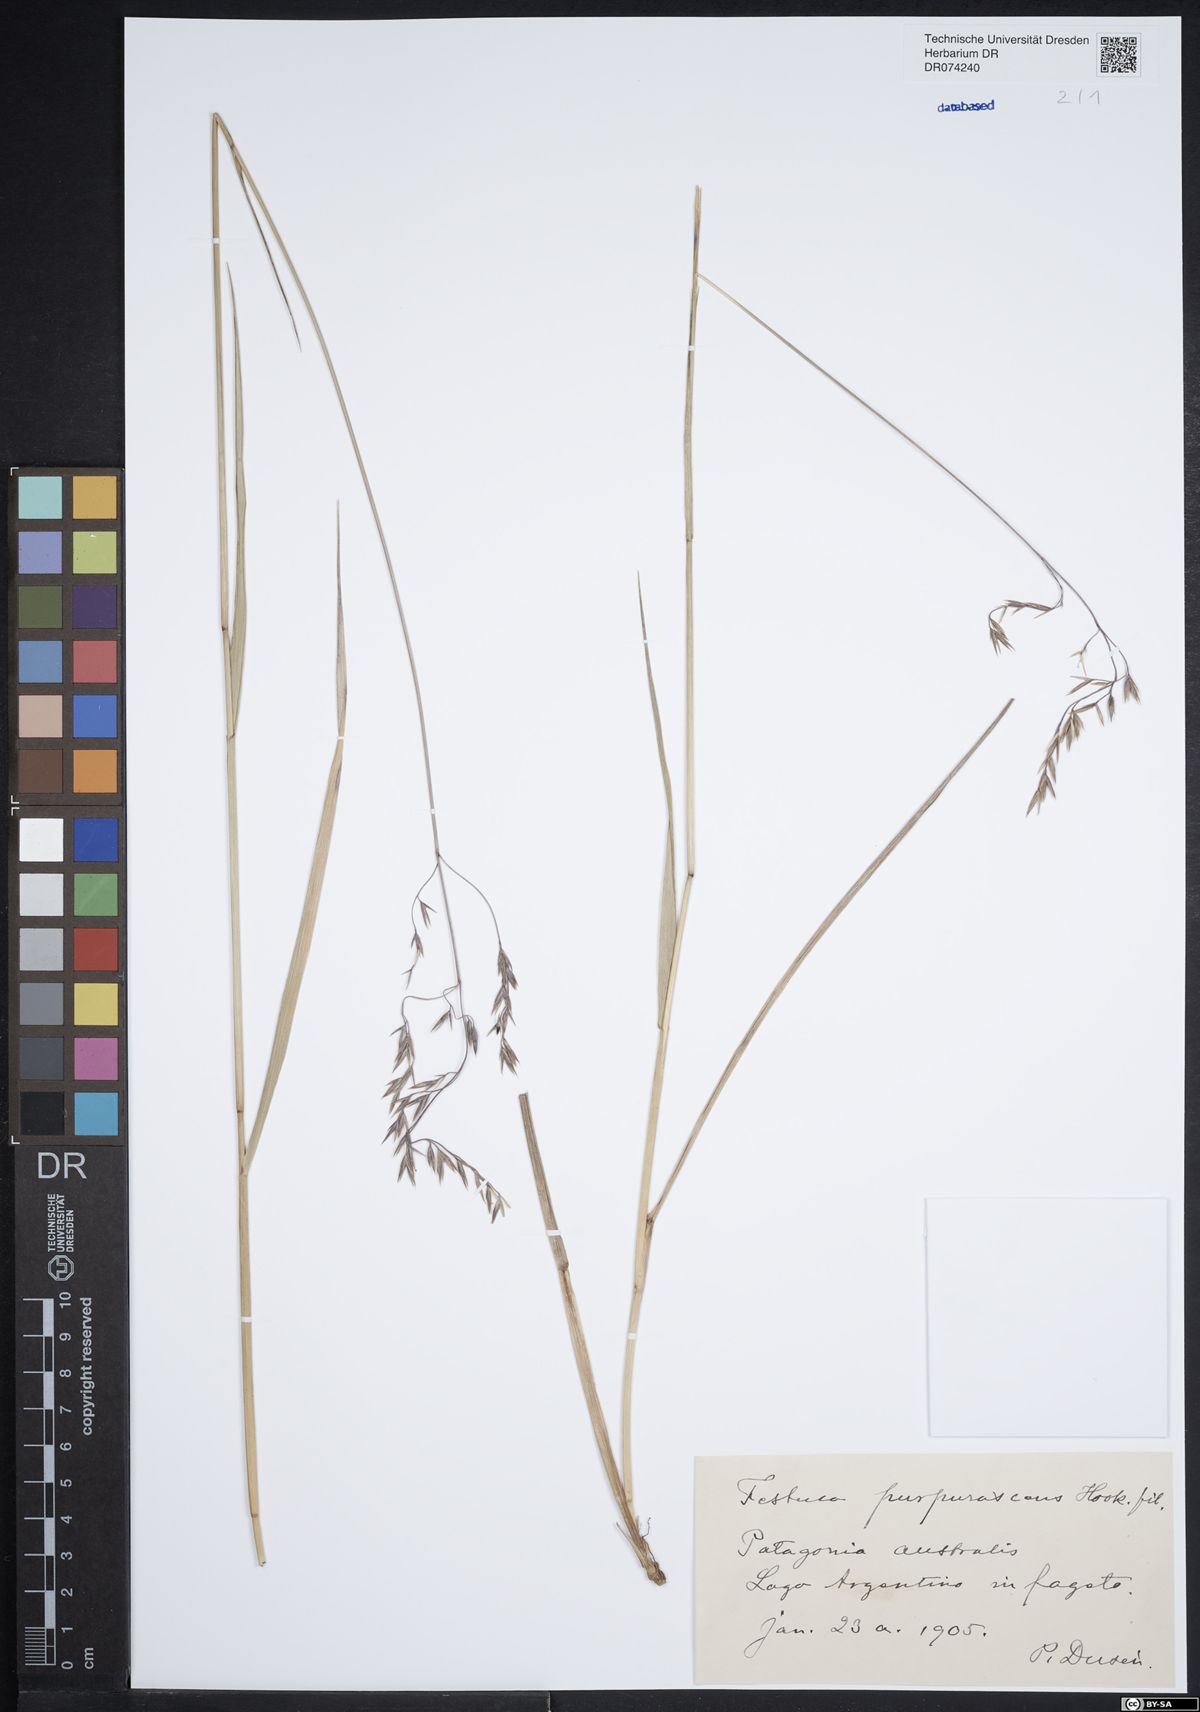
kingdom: Plantae
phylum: Tracheophyta
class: Liliopsida
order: Poales
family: Poaceae
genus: Festuca
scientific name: Festuca purpurascens
